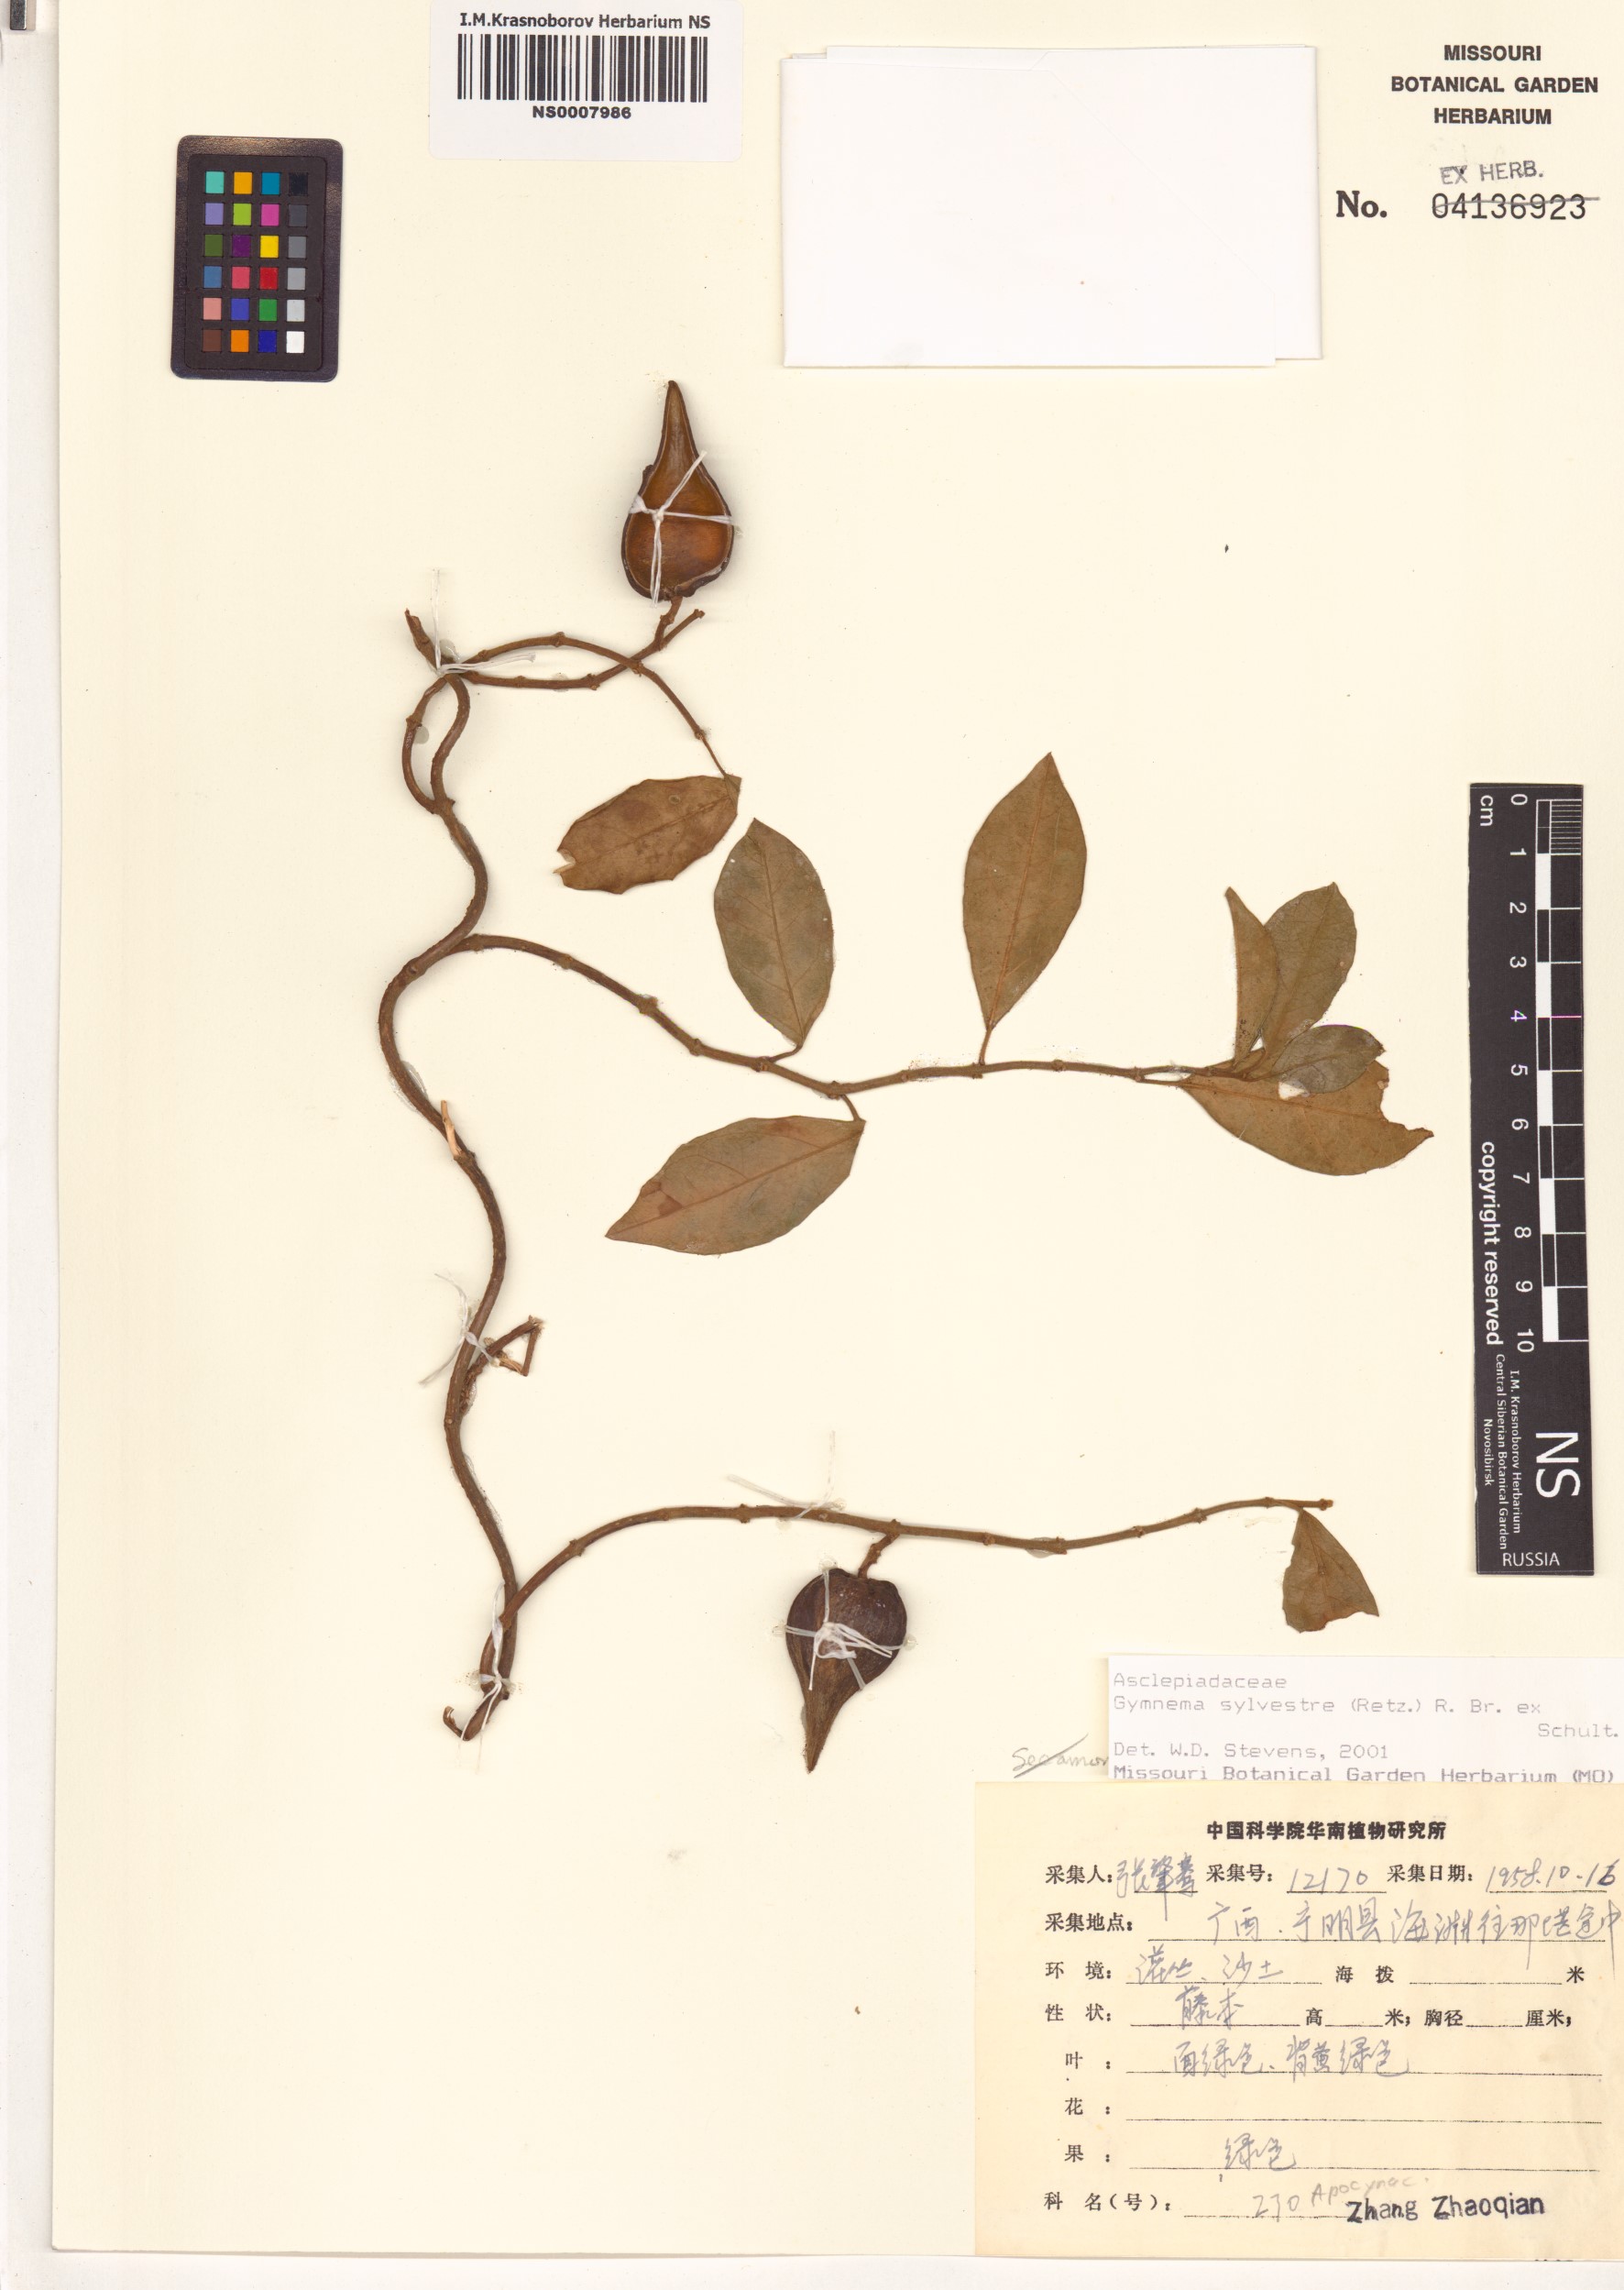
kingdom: Plantae
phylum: Tracheophyta
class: Magnoliopsida
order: Gentianales
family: Apocynaceae
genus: Gymnema
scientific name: Gymnema sylvestre
